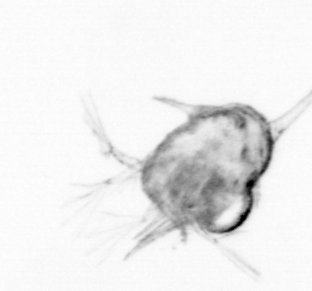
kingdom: Animalia
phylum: Arthropoda
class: Copepoda
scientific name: Copepoda
